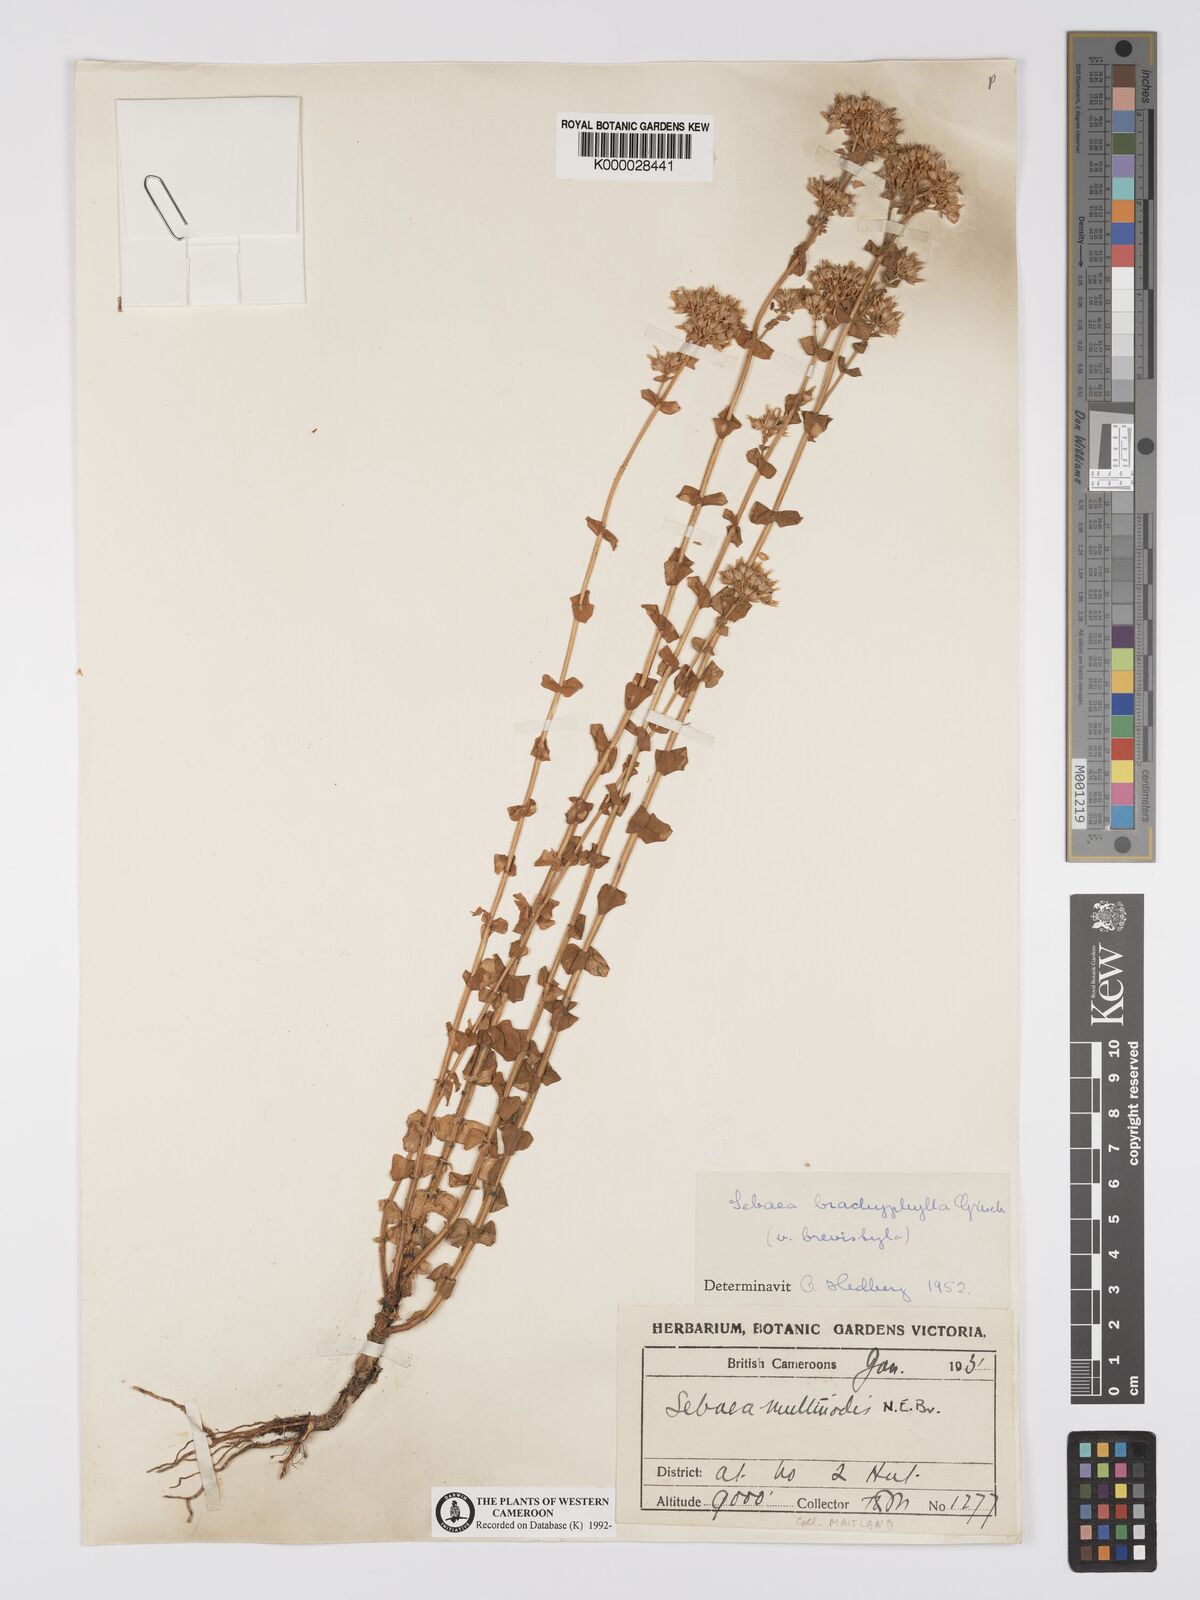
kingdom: Plantae
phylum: Tracheophyta
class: Magnoliopsida
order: Gentianales
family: Gentianaceae
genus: Sebaea
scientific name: Sebaea brachyphylla
